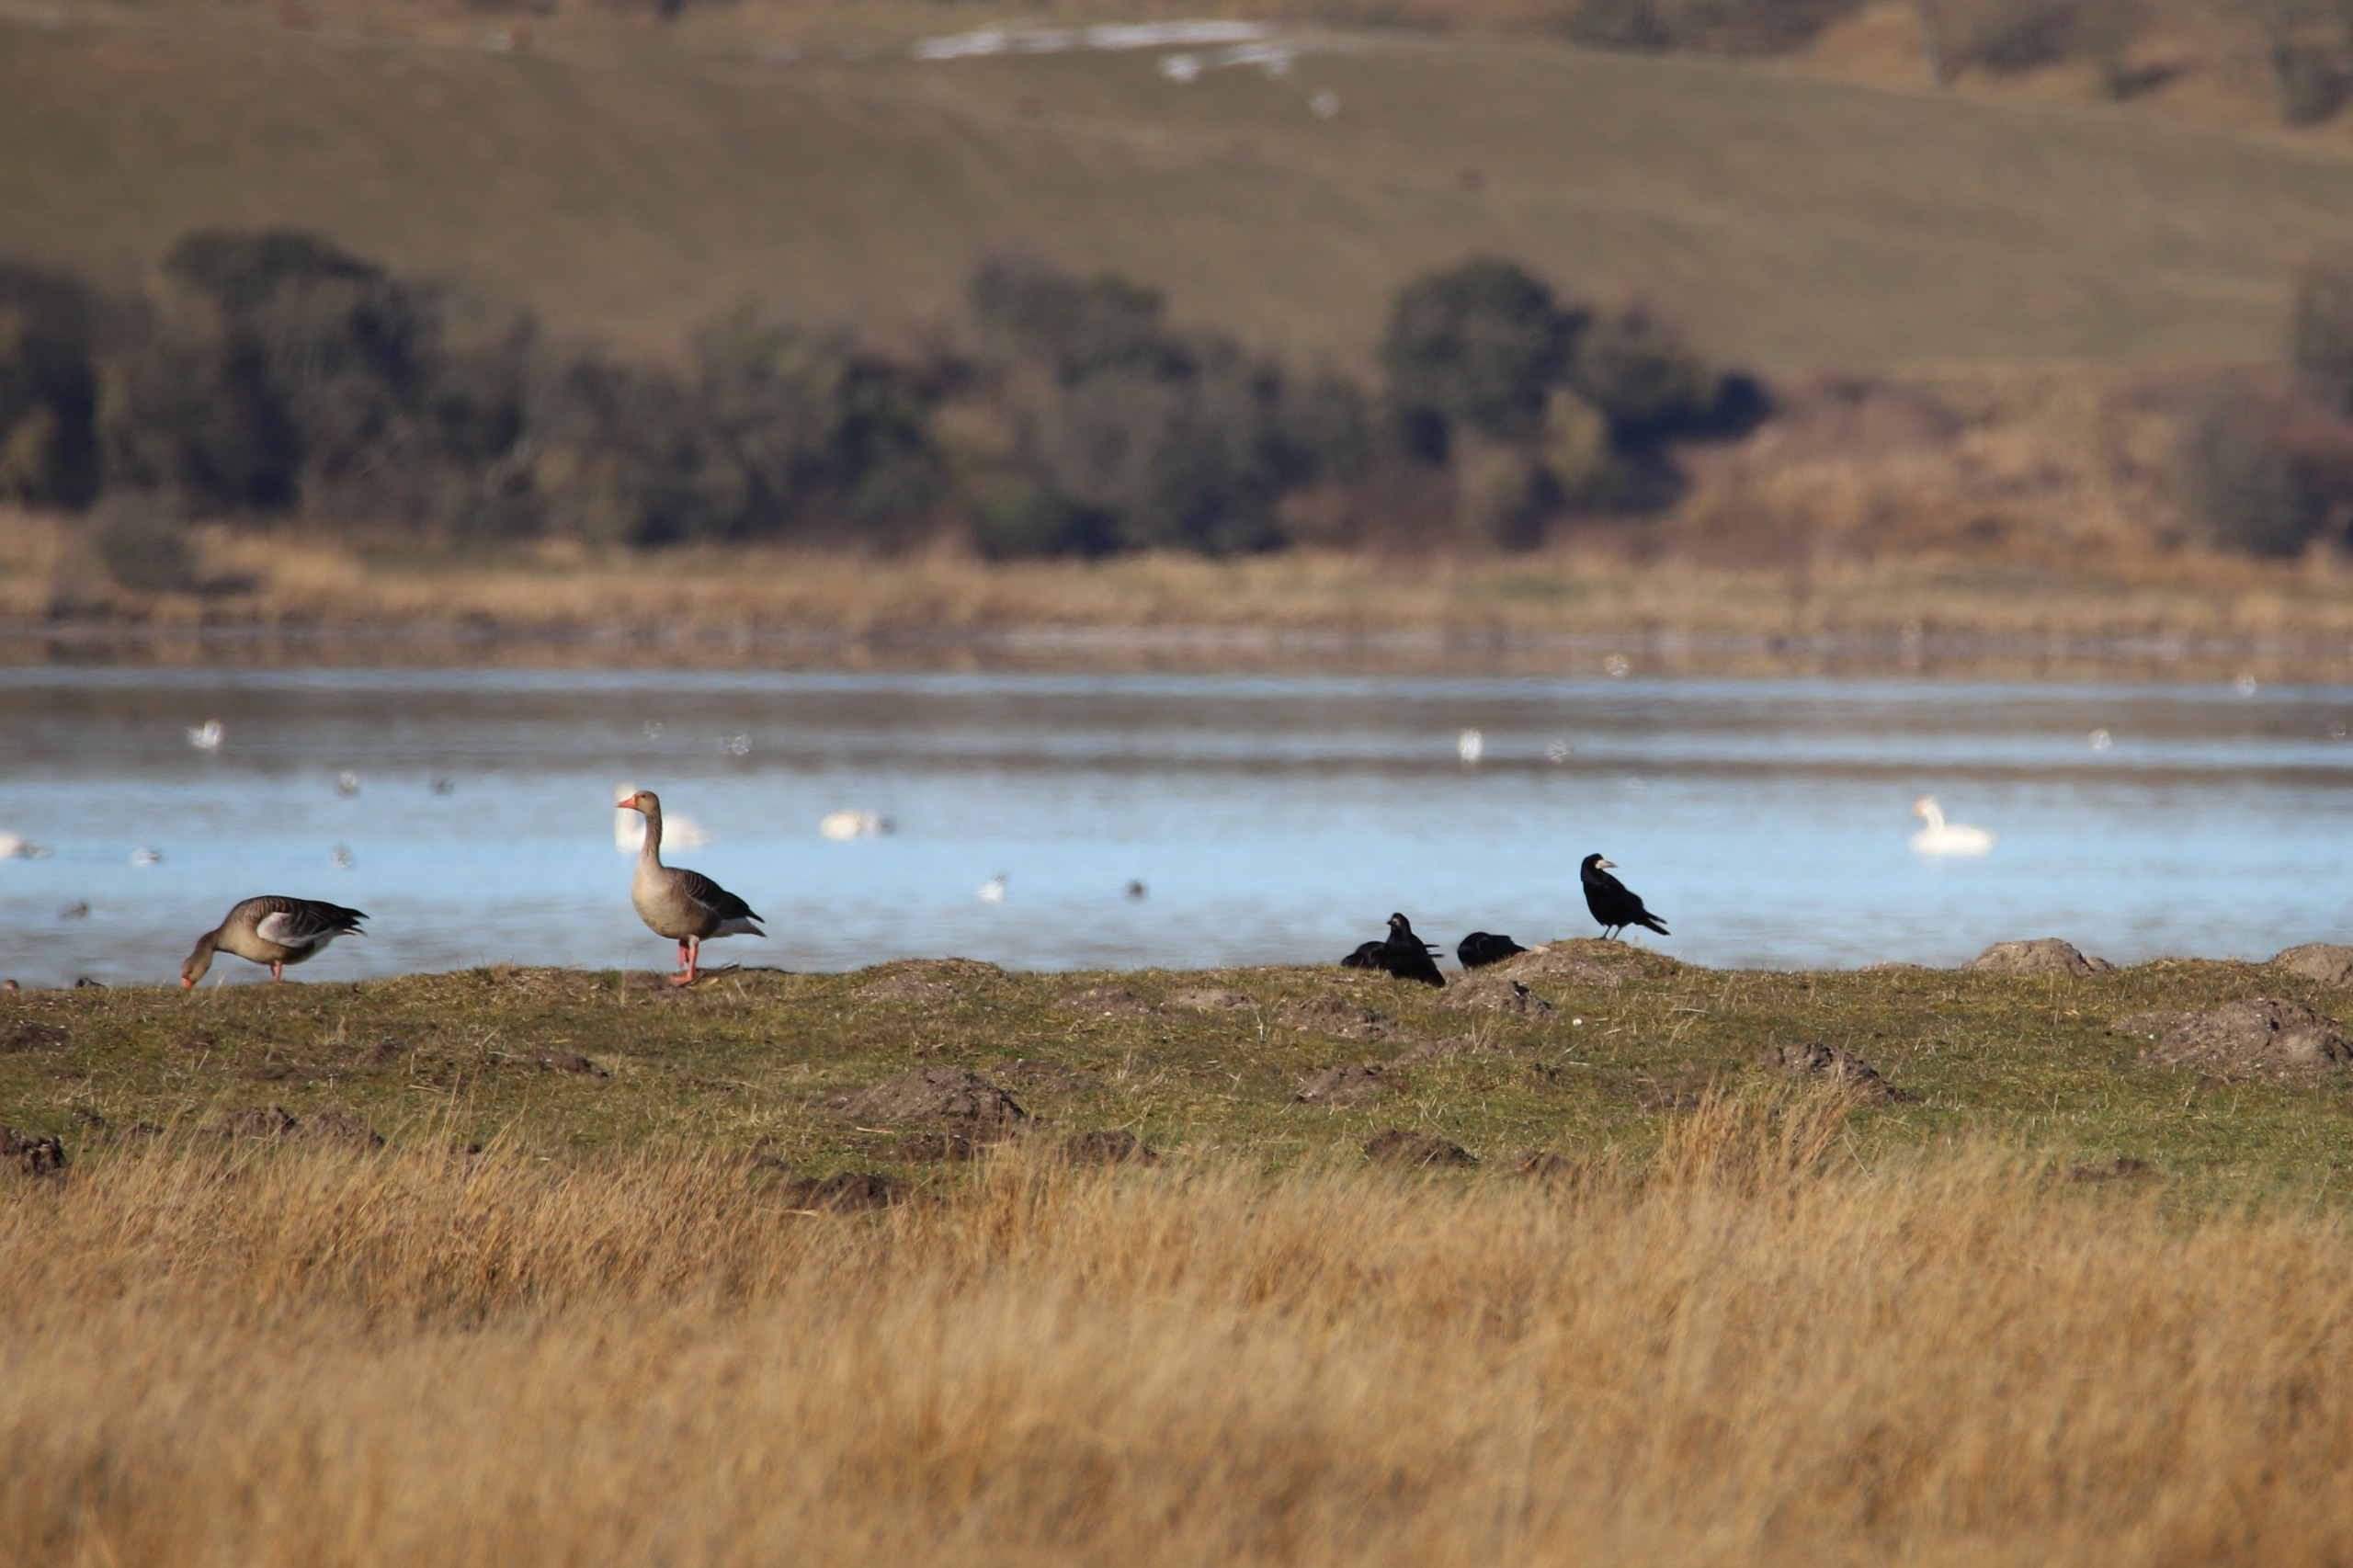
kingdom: Animalia
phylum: Chordata
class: Aves
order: Passeriformes
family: Corvidae
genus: Corvus
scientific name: Corvus frugilegus
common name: Råge
